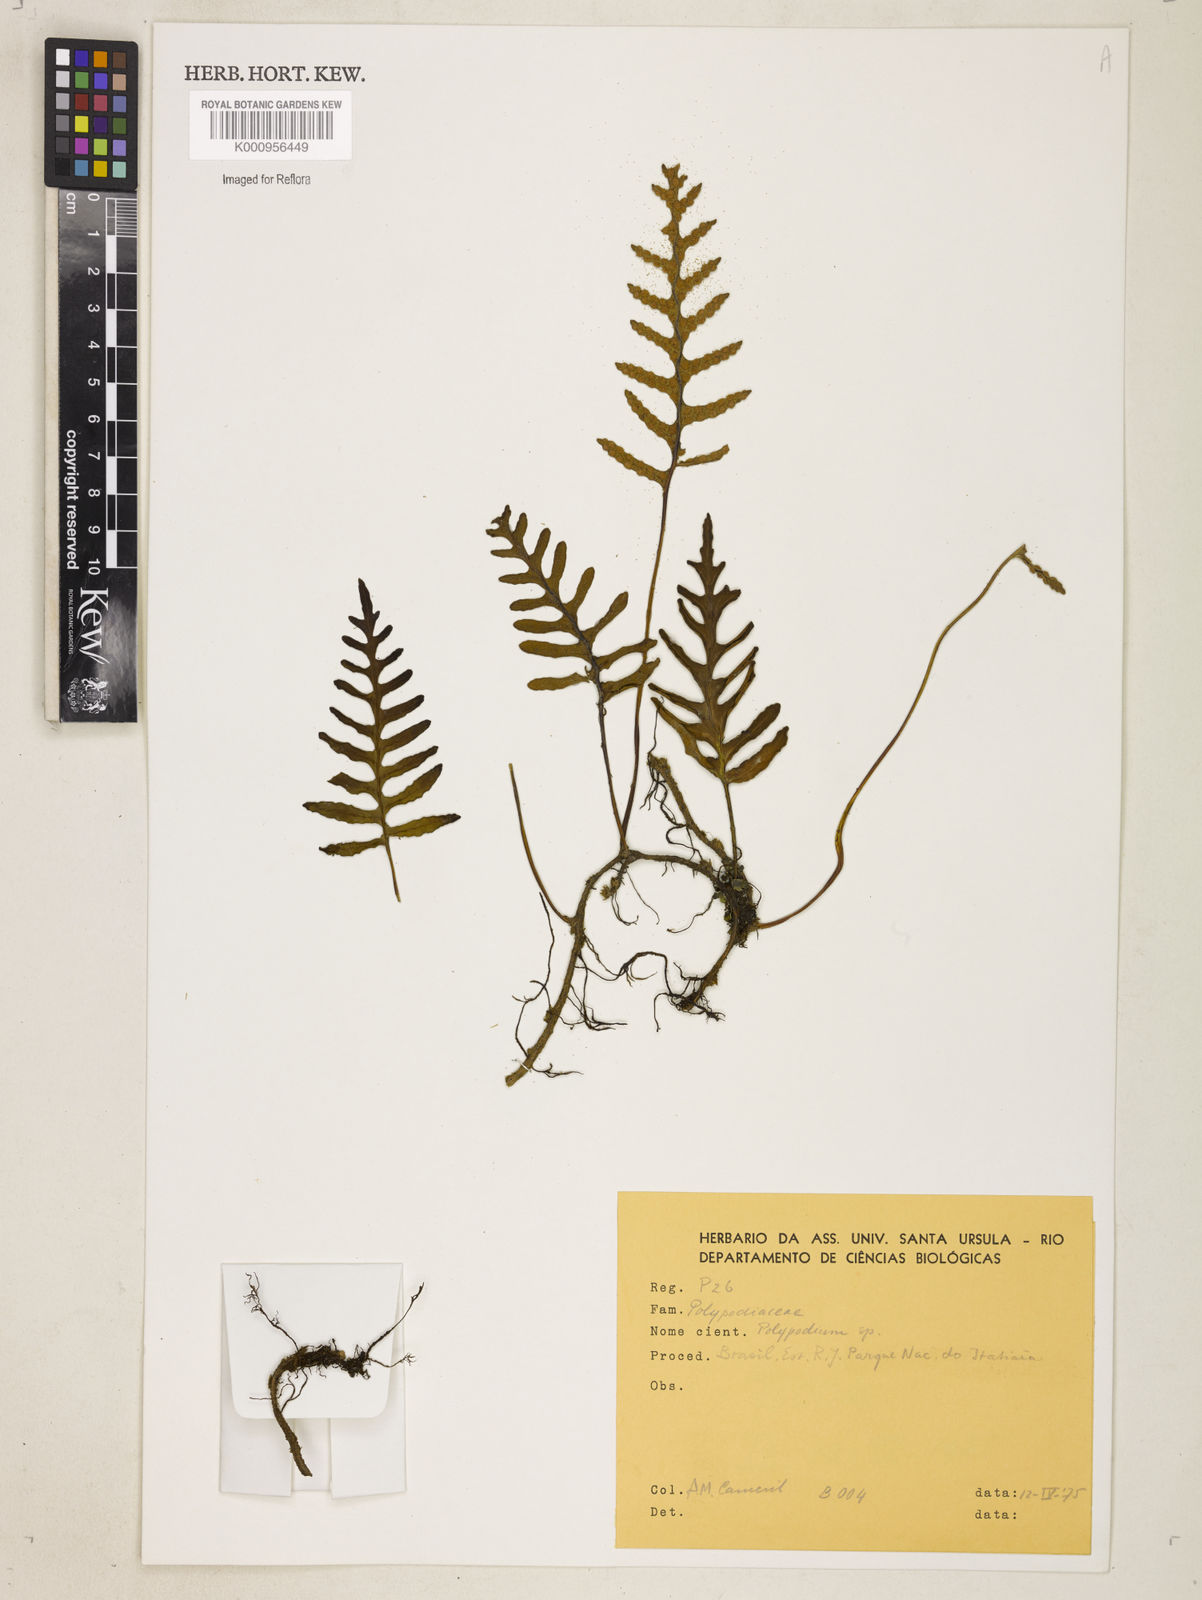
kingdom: Plantae
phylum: Tracheophyta
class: Polypodiopsida
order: Polypodiales
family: Polypodiaceae
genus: Polypodium
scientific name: Polypodium
